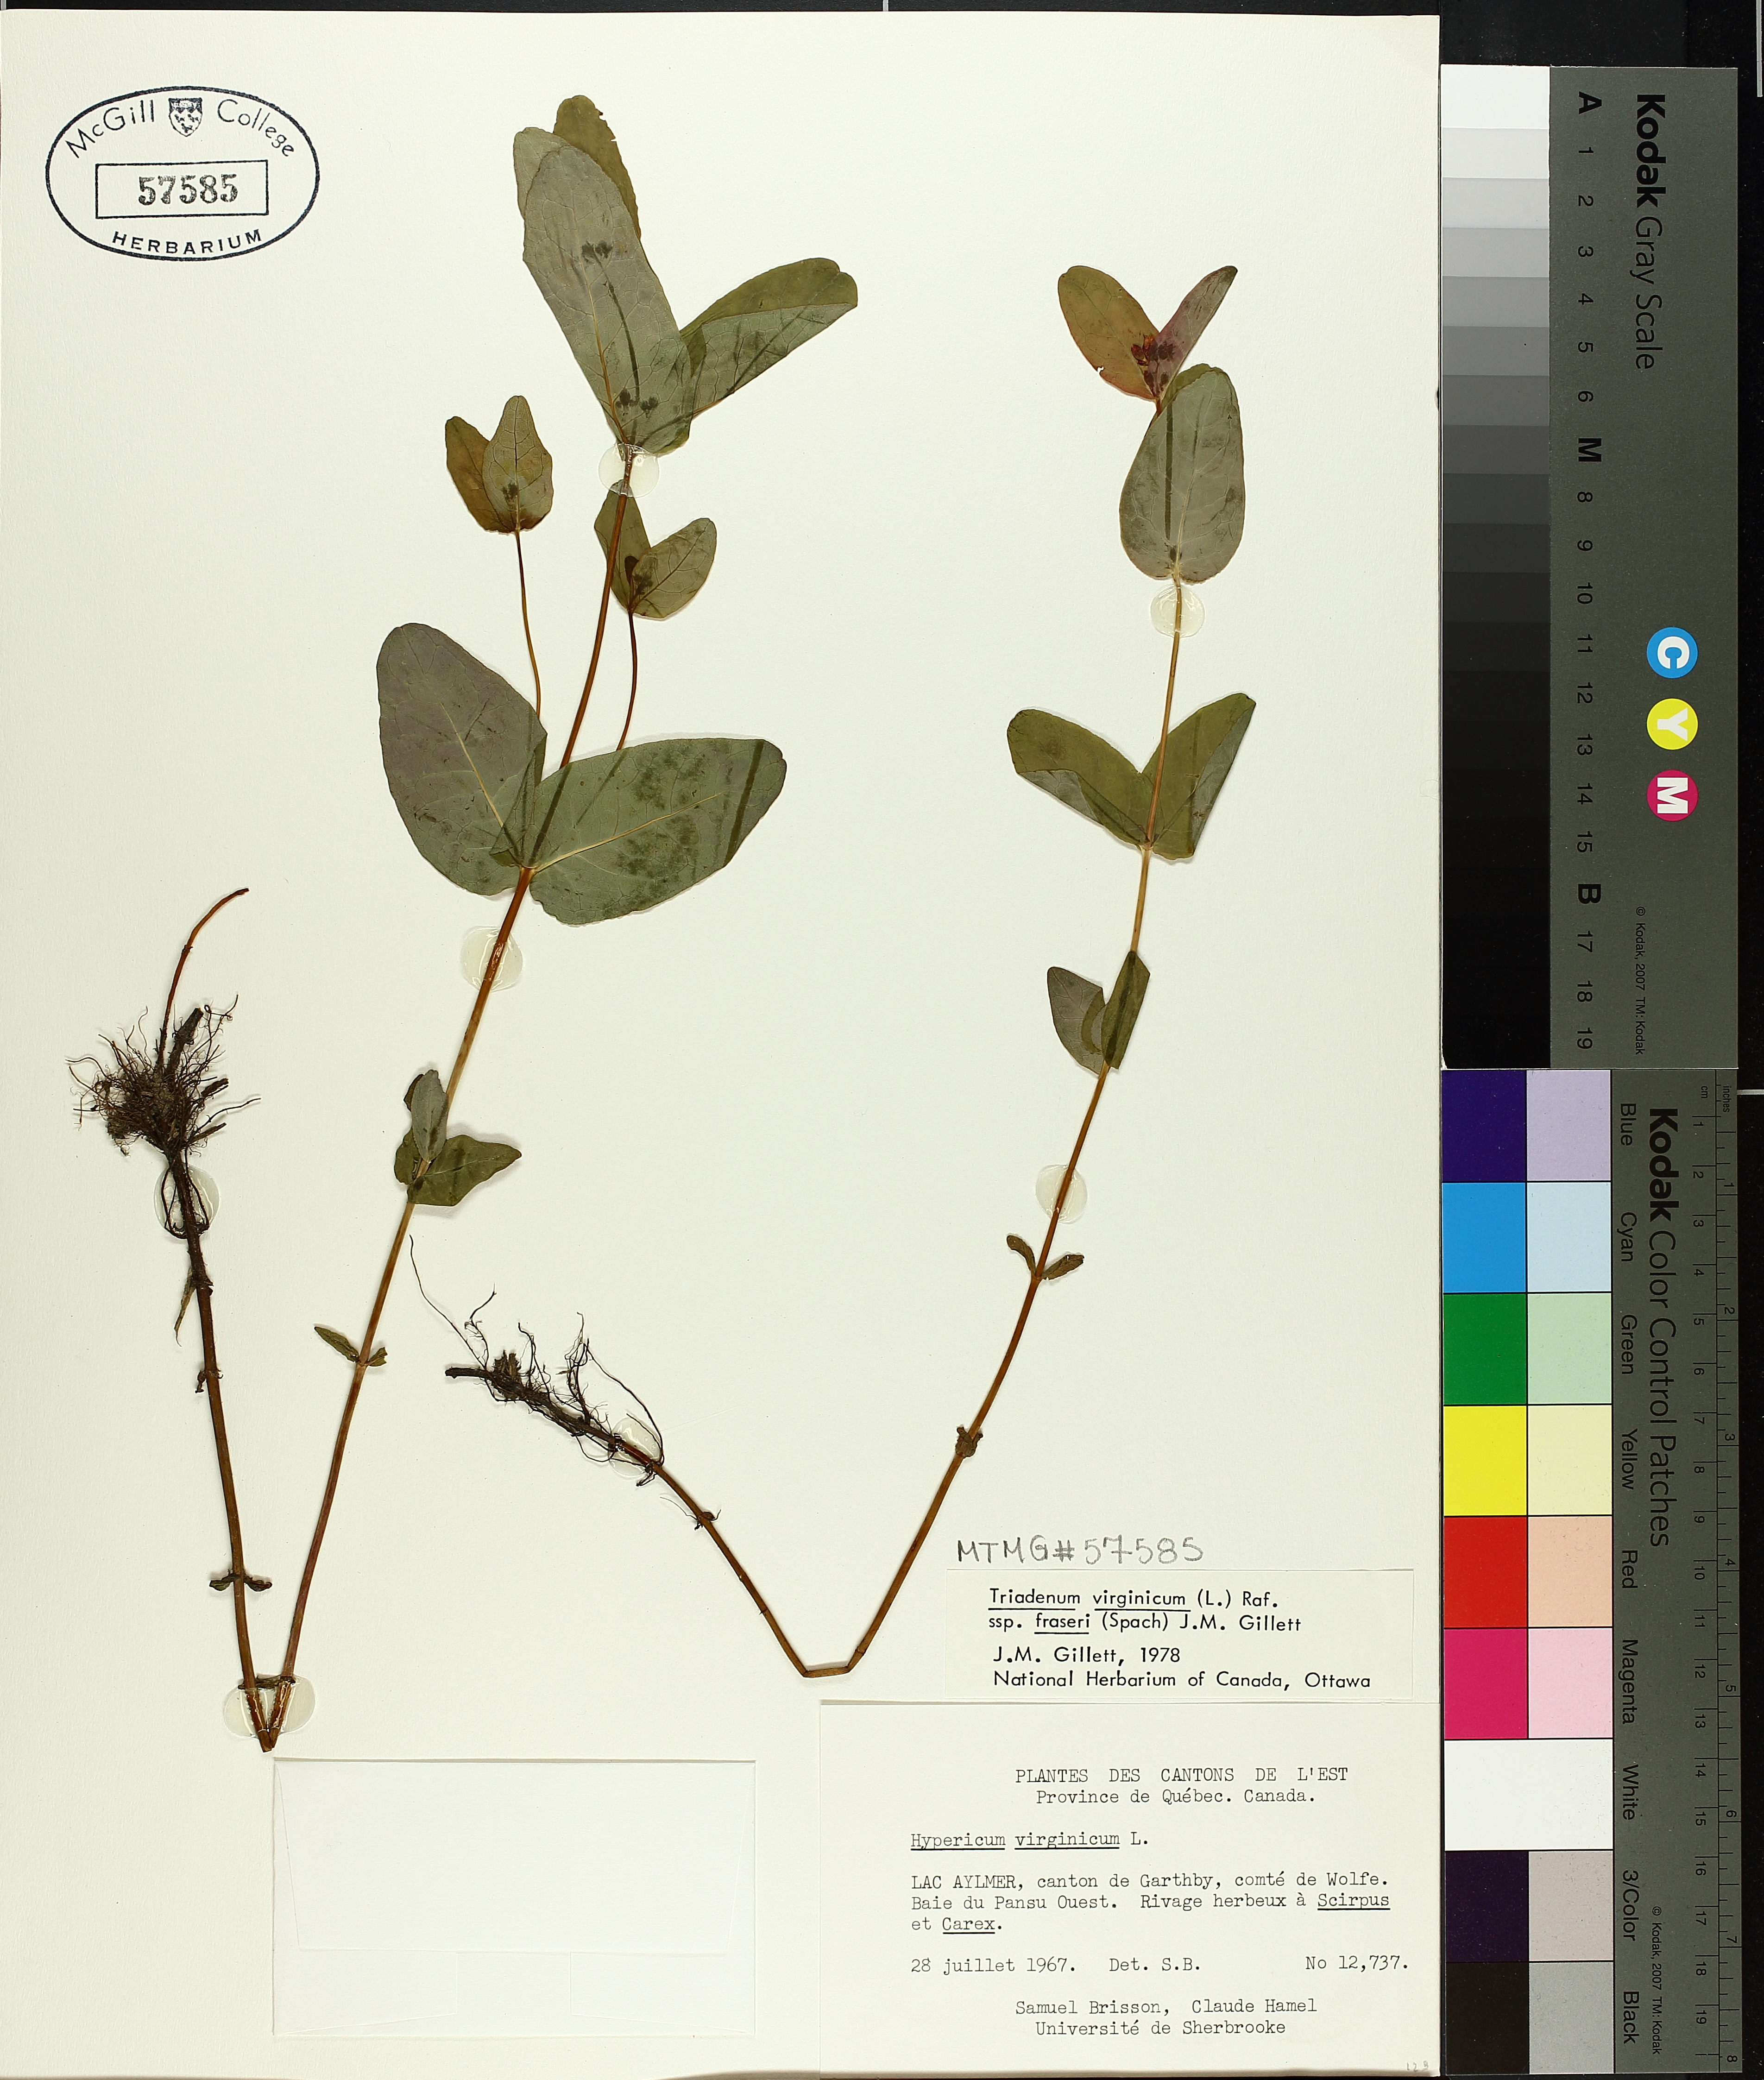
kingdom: Plantae
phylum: Tracheophyta
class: Magnoliopsida
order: Malpighiales
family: Hypericaceae
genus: Triadenum
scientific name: Triadenum fraseri
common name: Fraser's marsh st. johnswort
